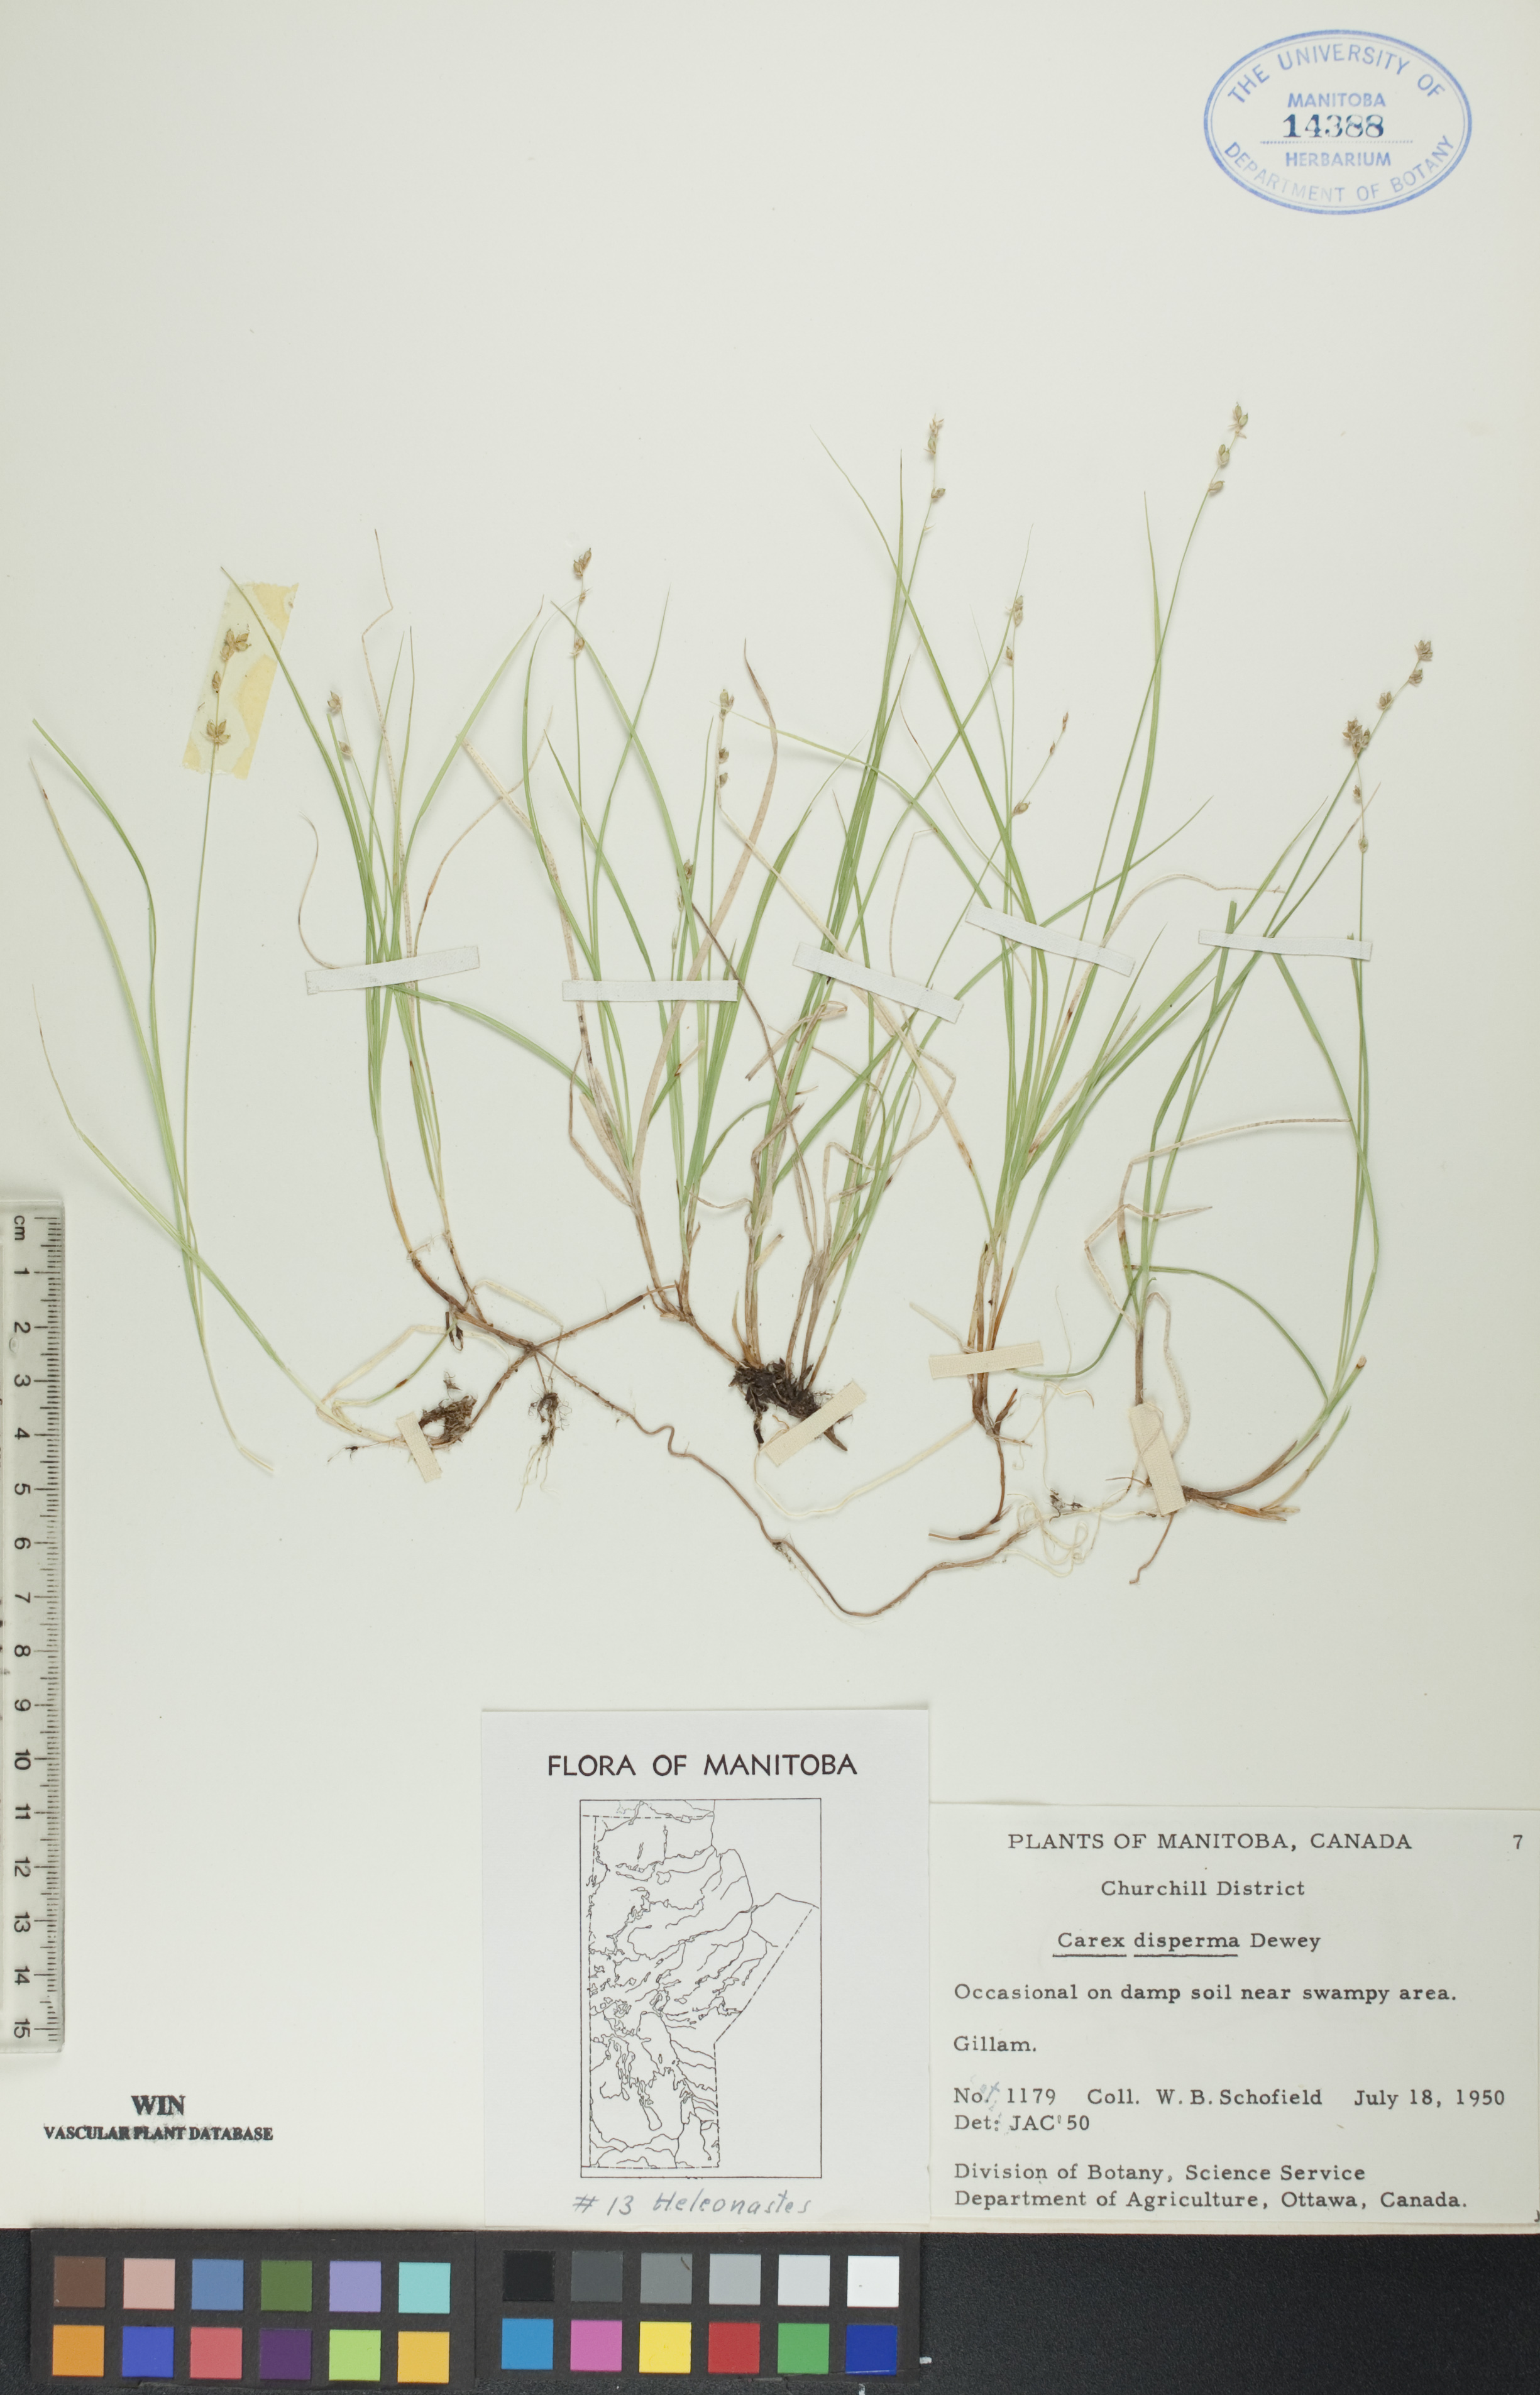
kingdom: Plantae
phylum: Tracheophyta
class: Liliopsida
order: Poales
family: Cyperaceae
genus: Carex
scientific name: Carex disperma
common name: Short-leaved sedge
